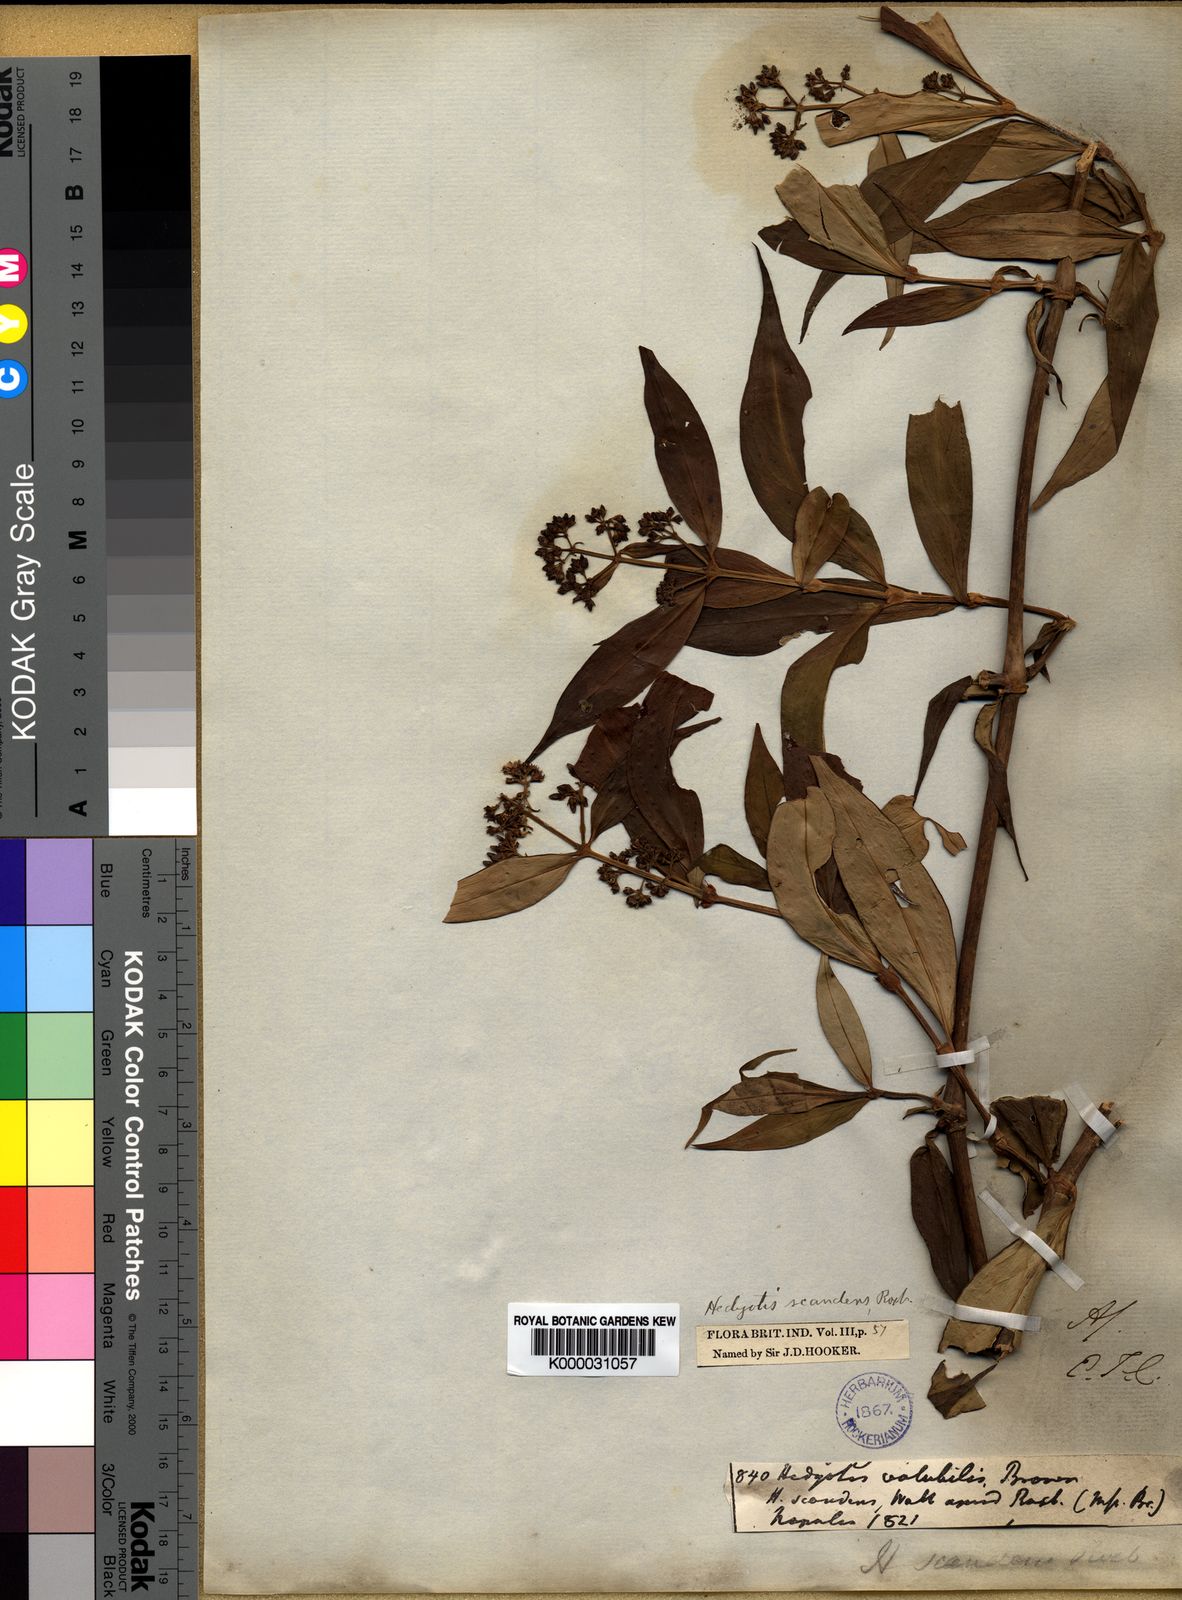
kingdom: Plantae
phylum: Tracheophyta
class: Magnoliopsida
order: Gentianales
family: Rubiaceae
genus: Dimetia
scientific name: Dimetia scandens
